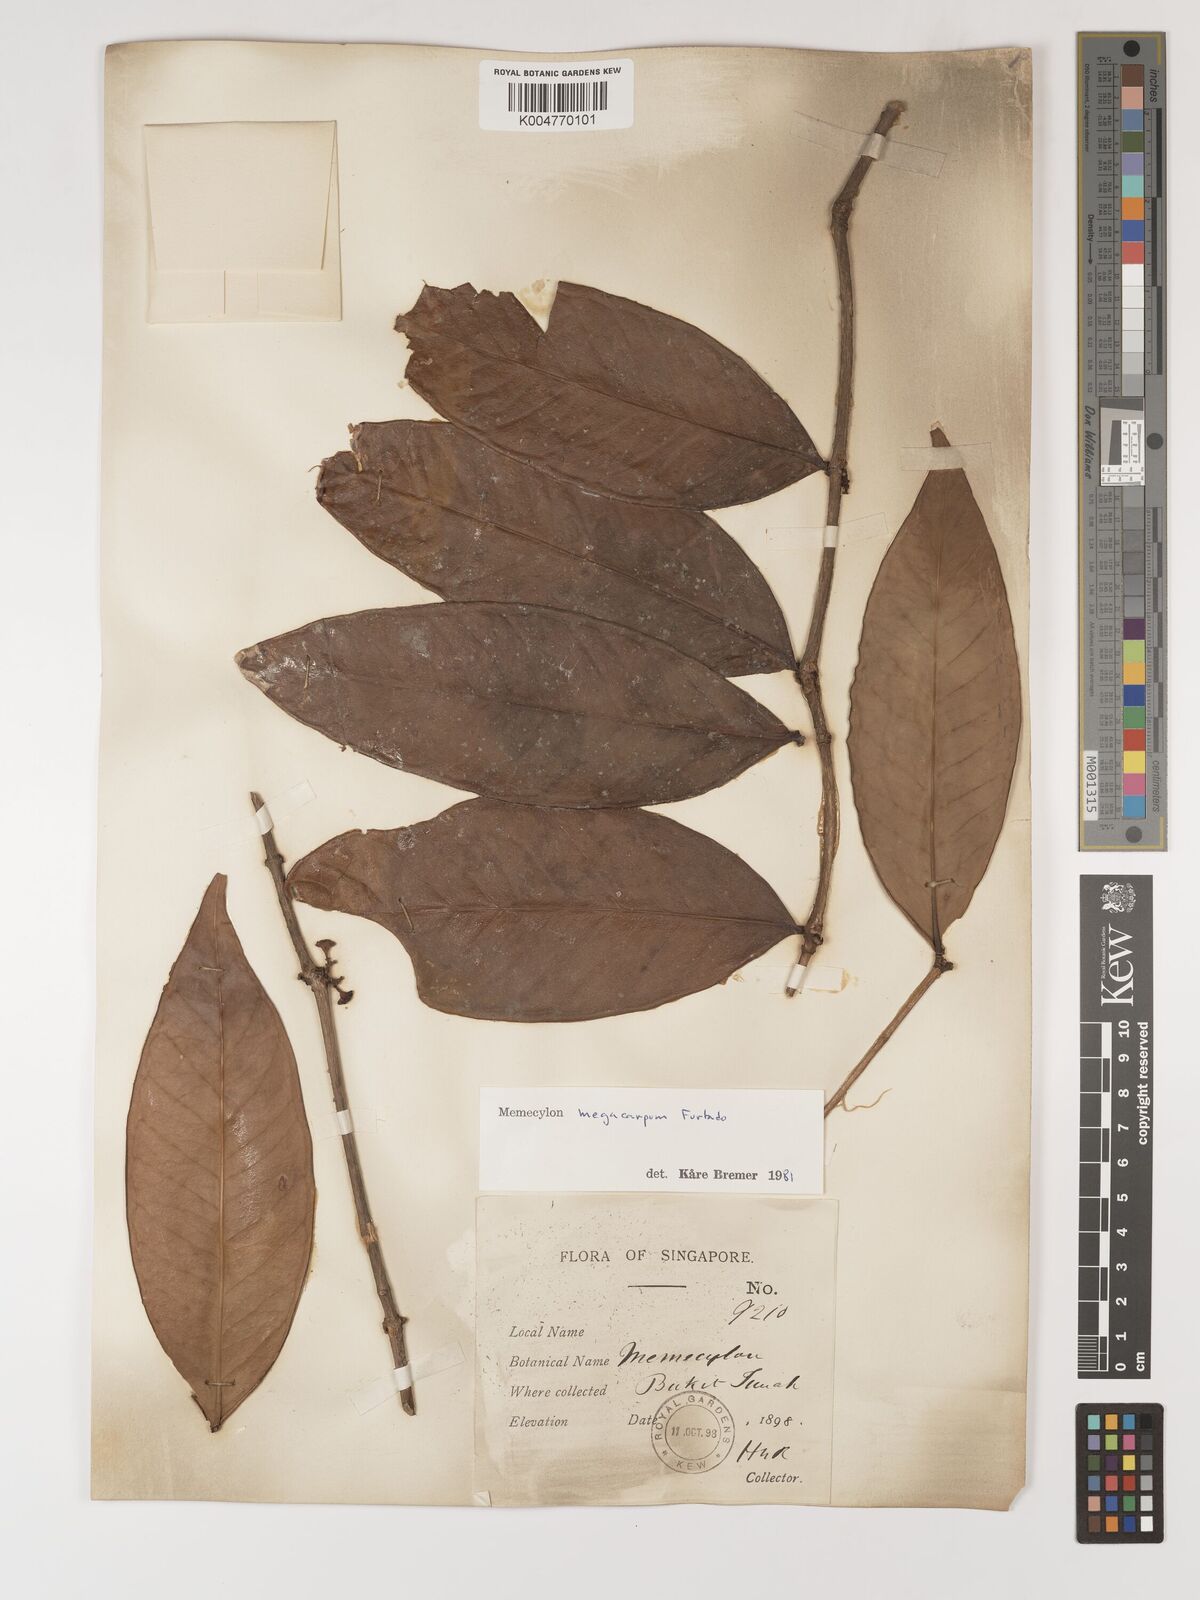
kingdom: Plantae
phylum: Tracheophyta
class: Magnoliopsida
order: Myrtales
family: Melastomataceae
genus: Memecylon
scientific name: Memecylon megacarpum
